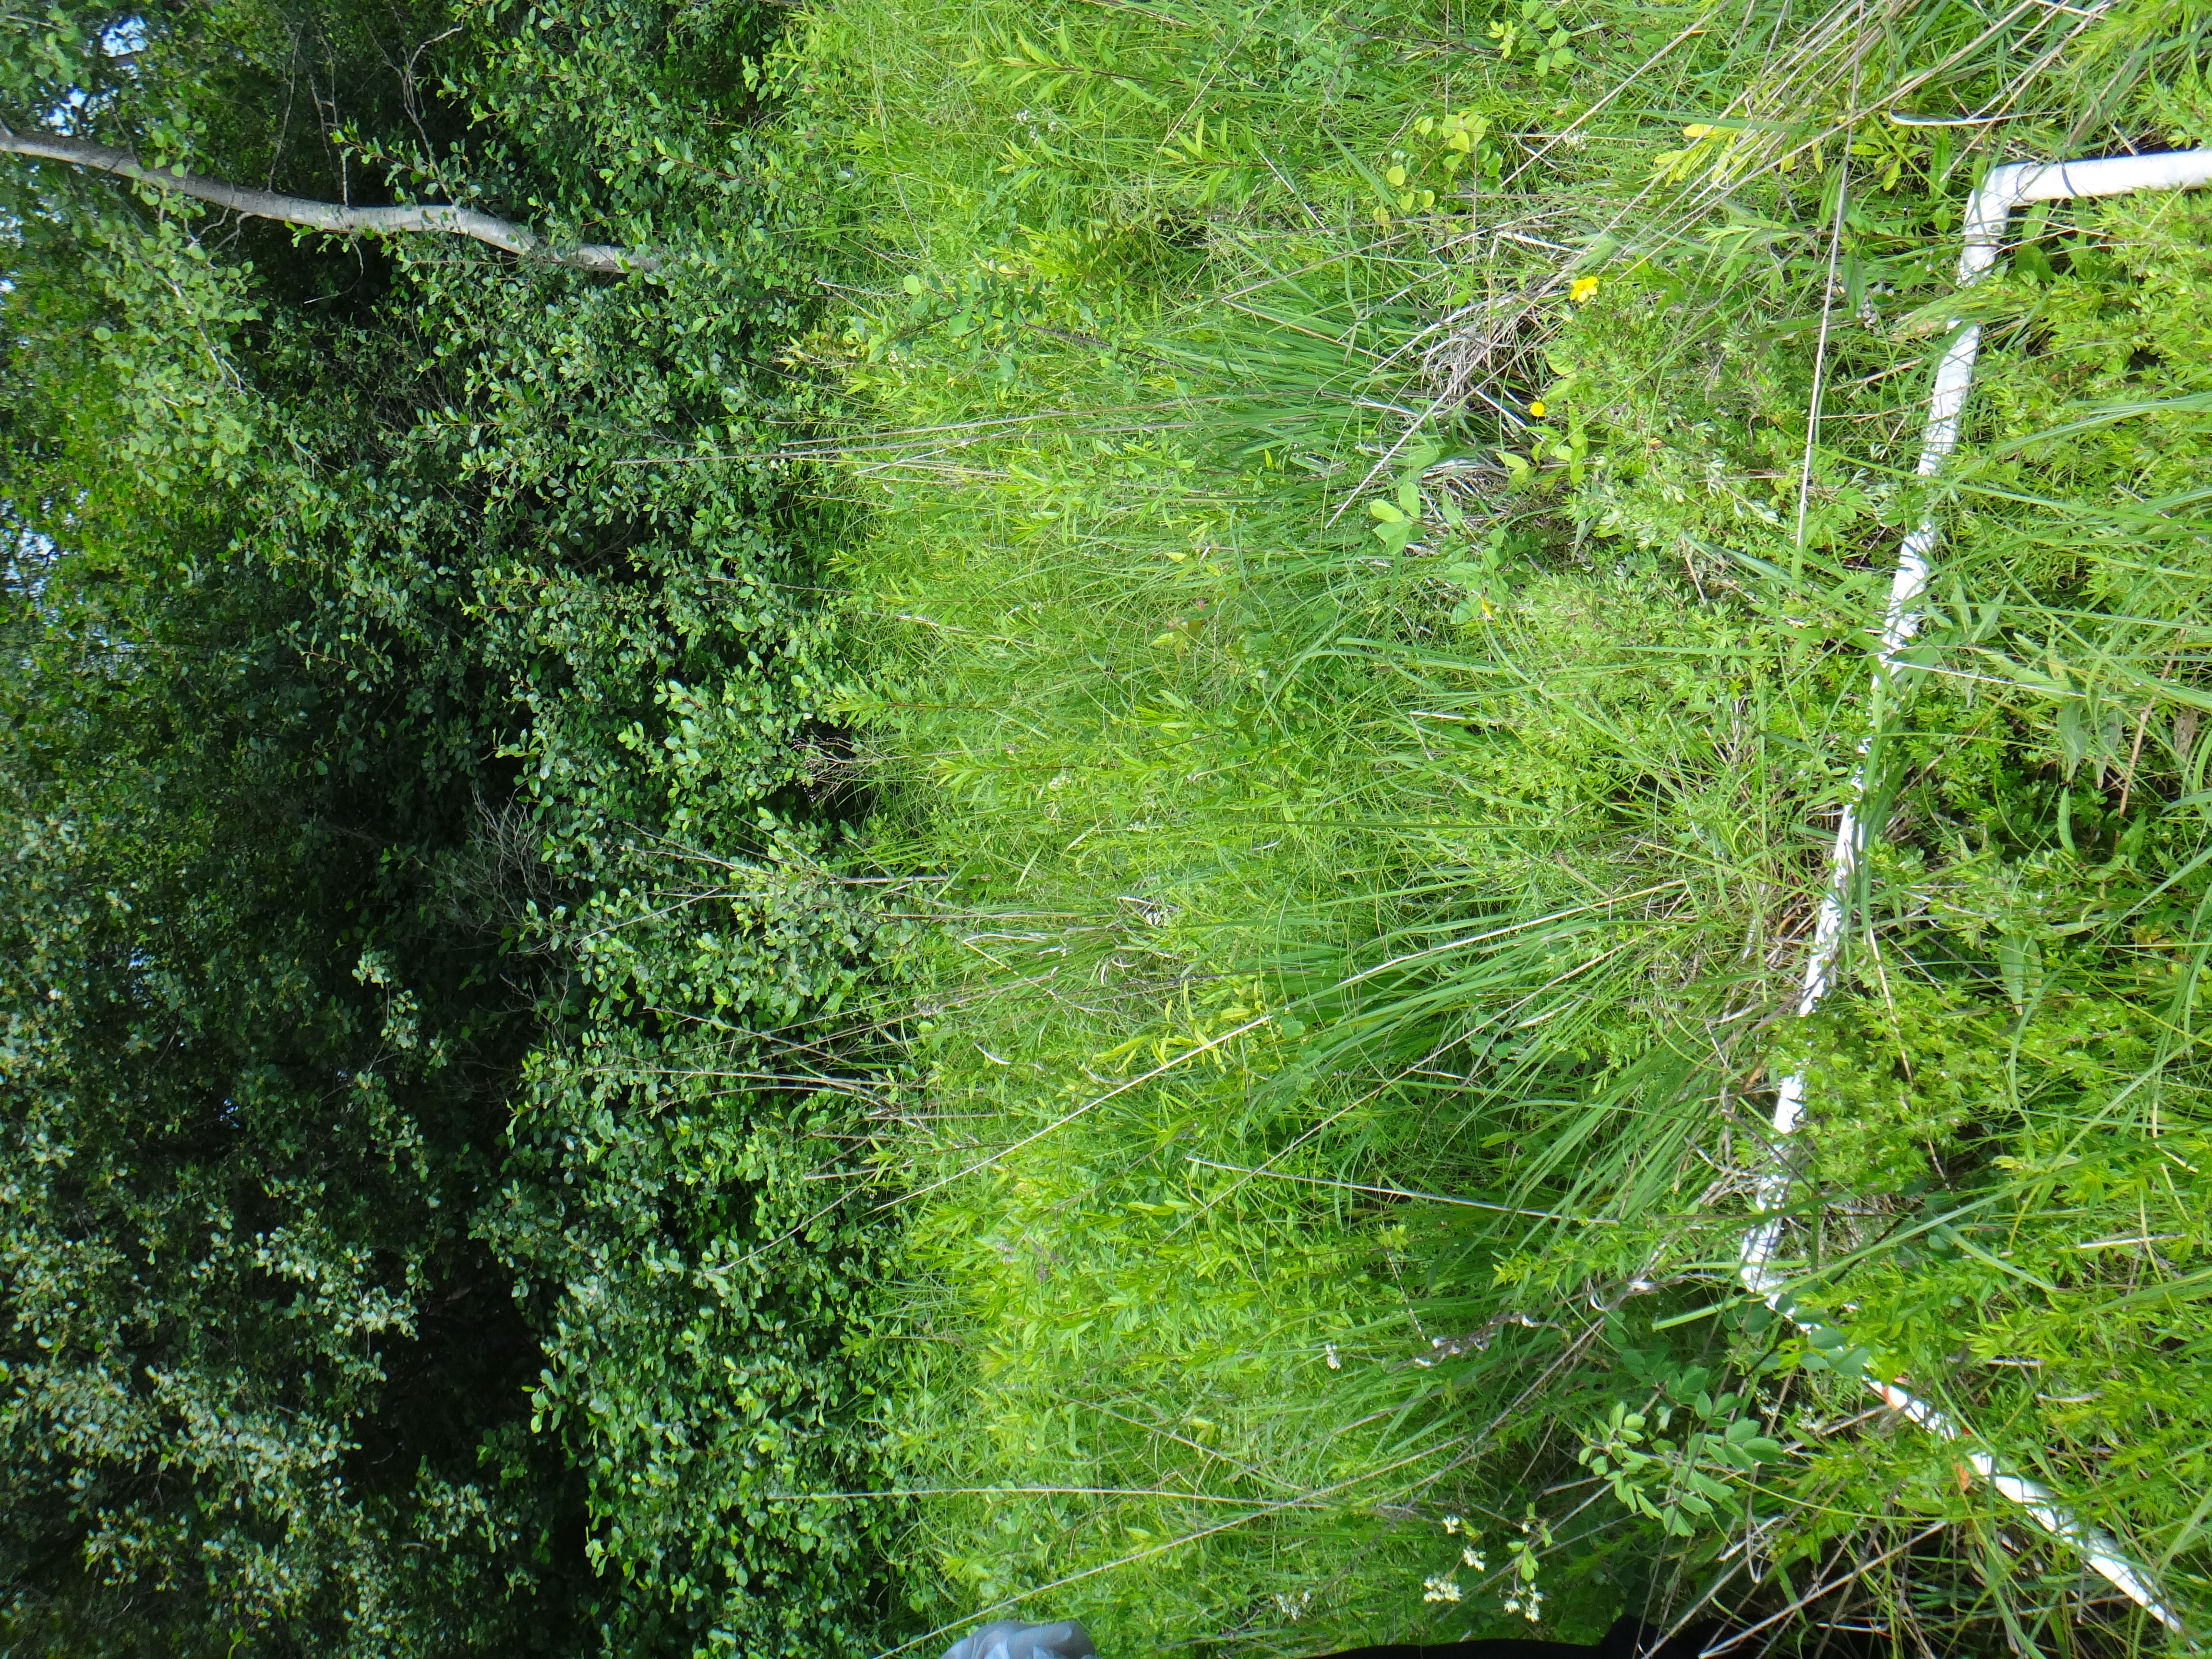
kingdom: Plantae
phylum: Tracheophyta
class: Magnoliopsida
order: Ranunculales
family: Ranunculaceae
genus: Thalictrum
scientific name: Thalictrum dasycarpum
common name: Purple meadow-rue
